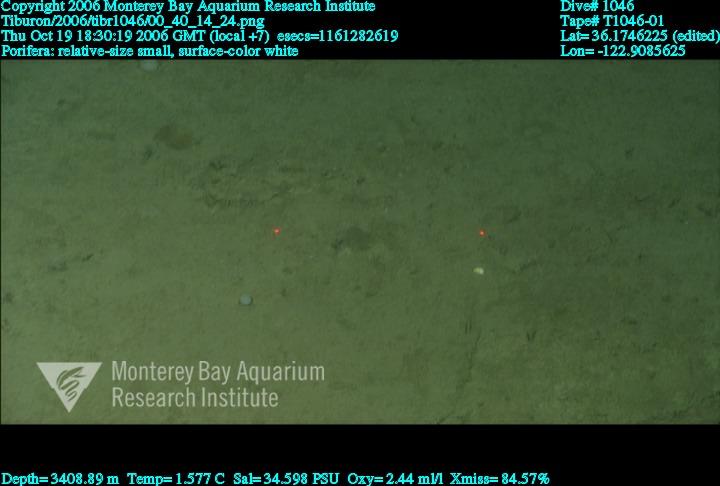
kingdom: Animalia
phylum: Porifera
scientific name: Porifera
